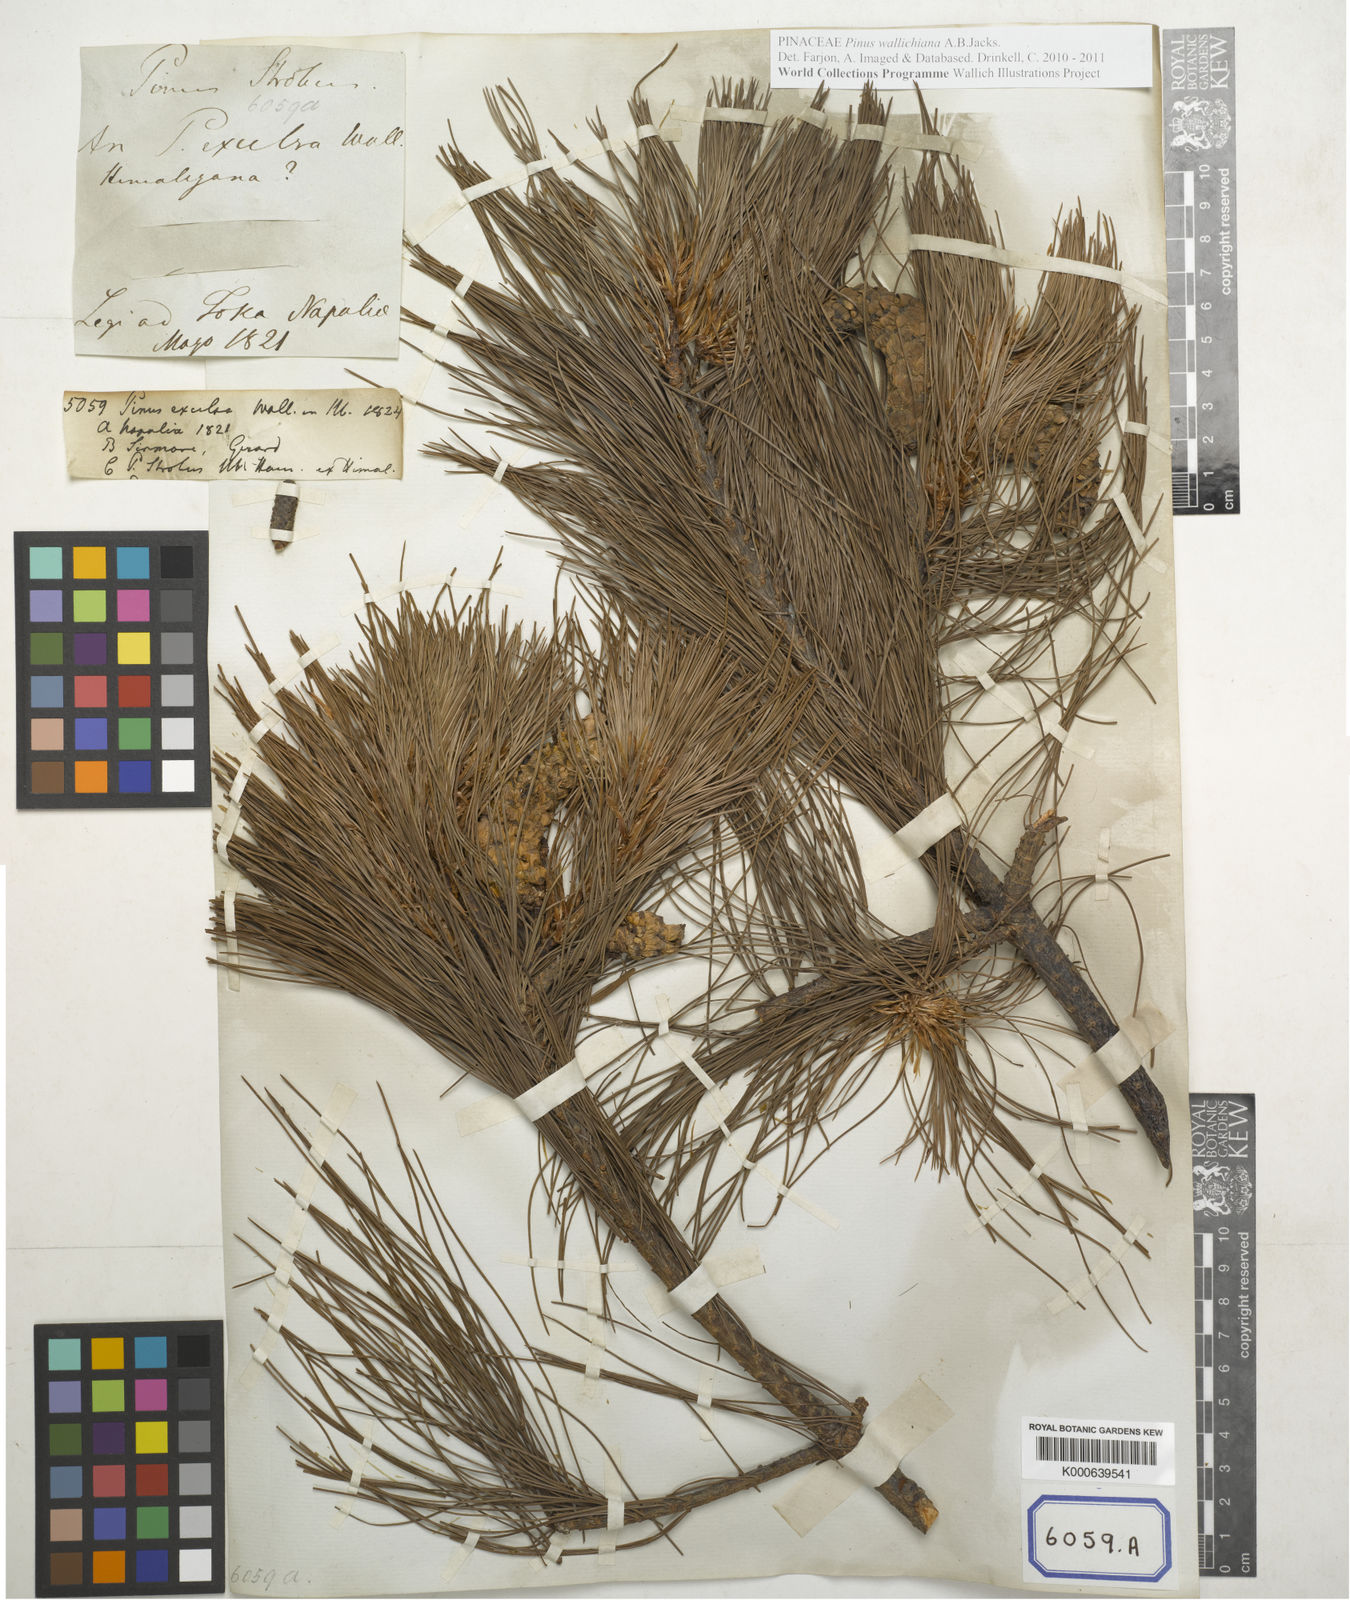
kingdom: Plantae
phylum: Tracheophyta
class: Pinopsida
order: Pinales
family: Pinaceae
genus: Pinus
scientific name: Pinus
